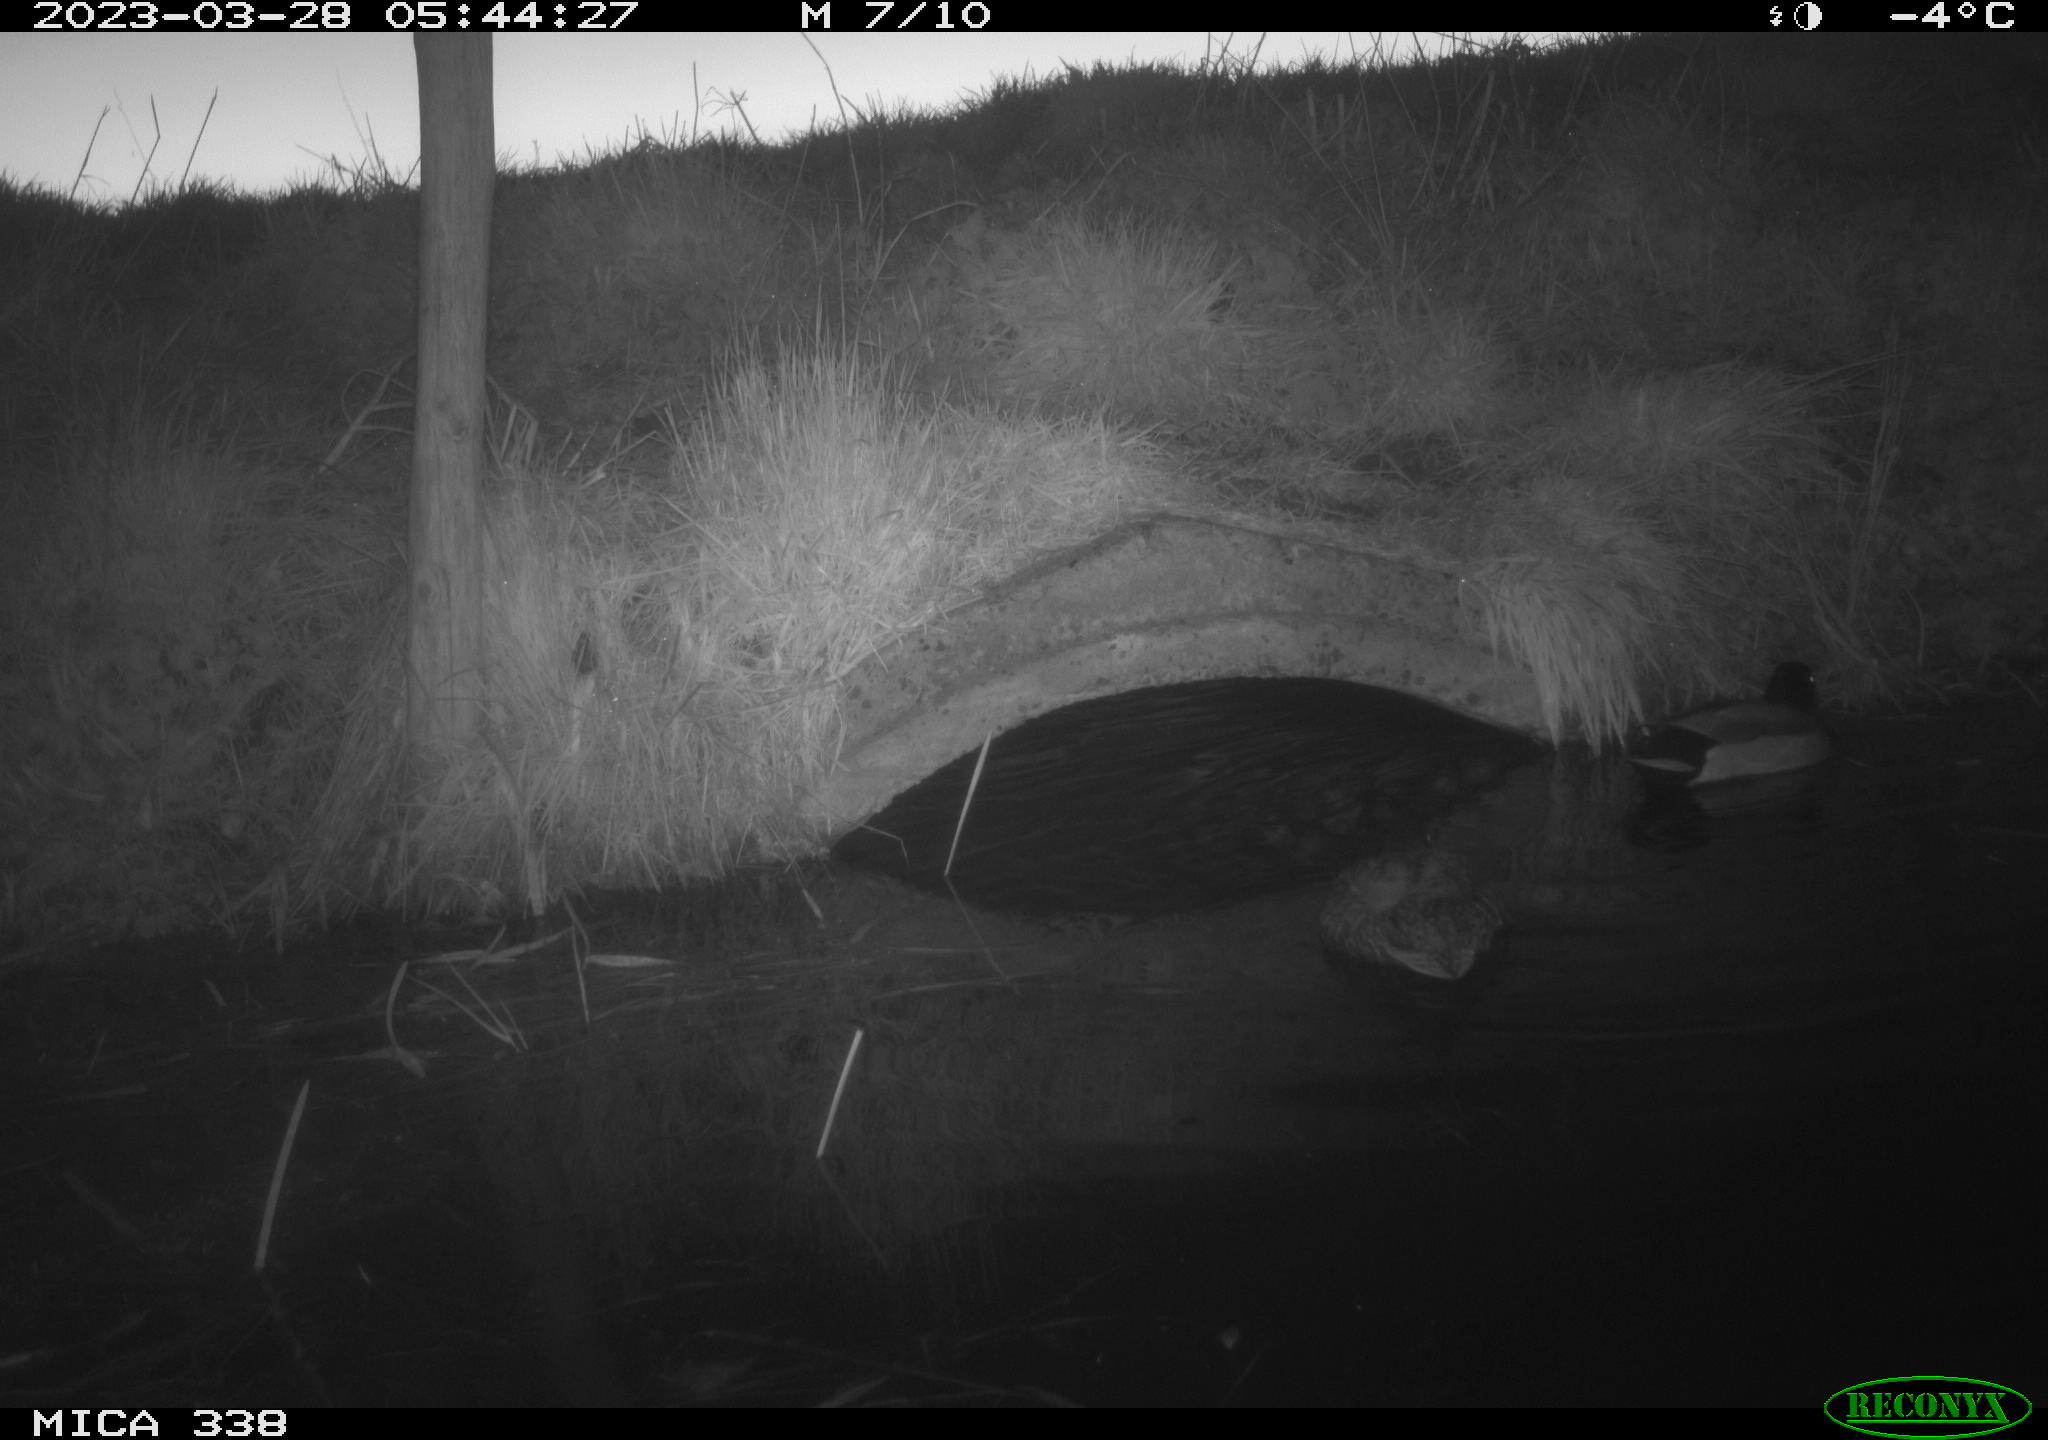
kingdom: Animalia
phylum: Chordata
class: Aves
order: Anseriformes
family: Anatidae
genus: Anas
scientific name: Anas platyrhynchos
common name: Mallard
